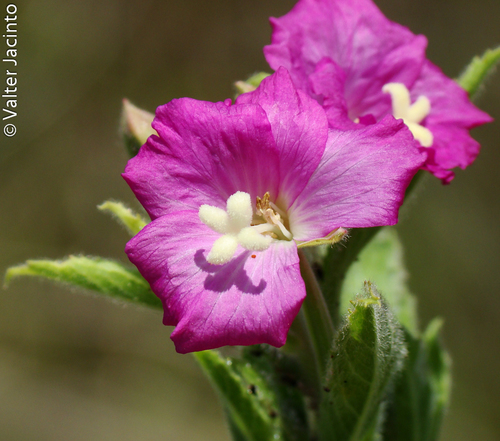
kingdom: Plantae
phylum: Tracheophyta
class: Magnoliopsida
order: Myrtales
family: Onagraceae
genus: Epilobium
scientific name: Epilobium hirsutum
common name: Great willowherb
